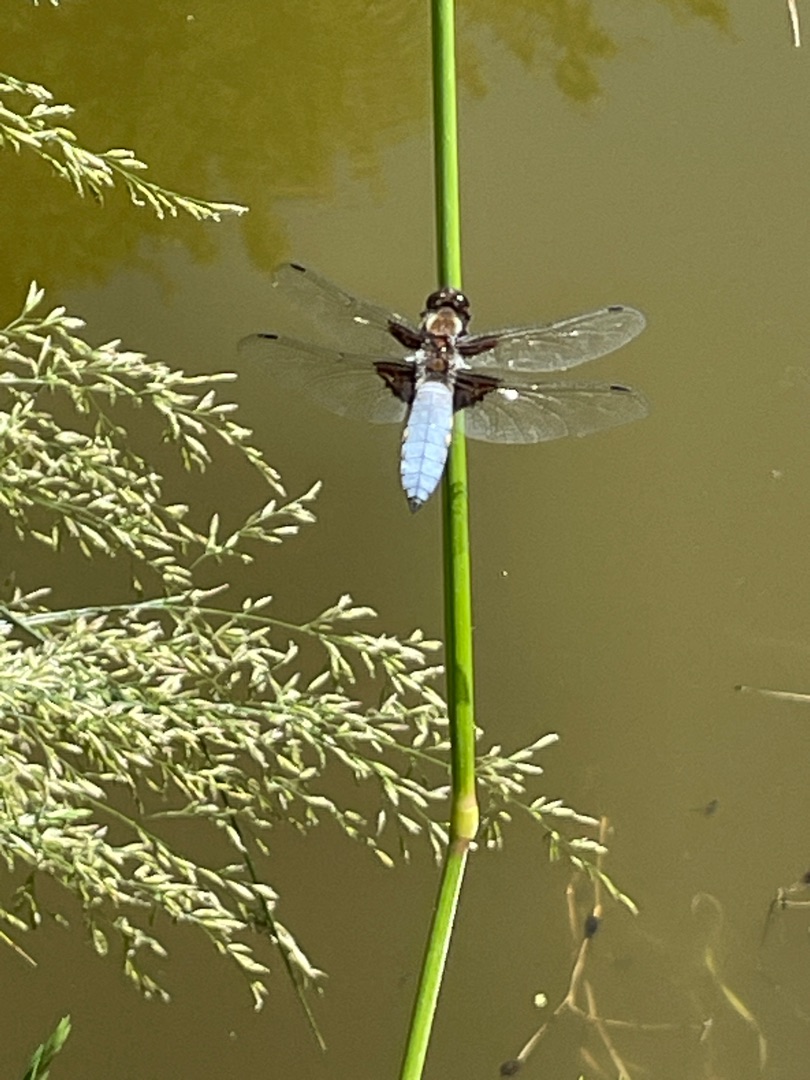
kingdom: Animalia
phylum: Arthropoda
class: Insecta
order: Odonata
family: Libellulidae
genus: Libellula
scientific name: Libellula depressa
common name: Blå libel
